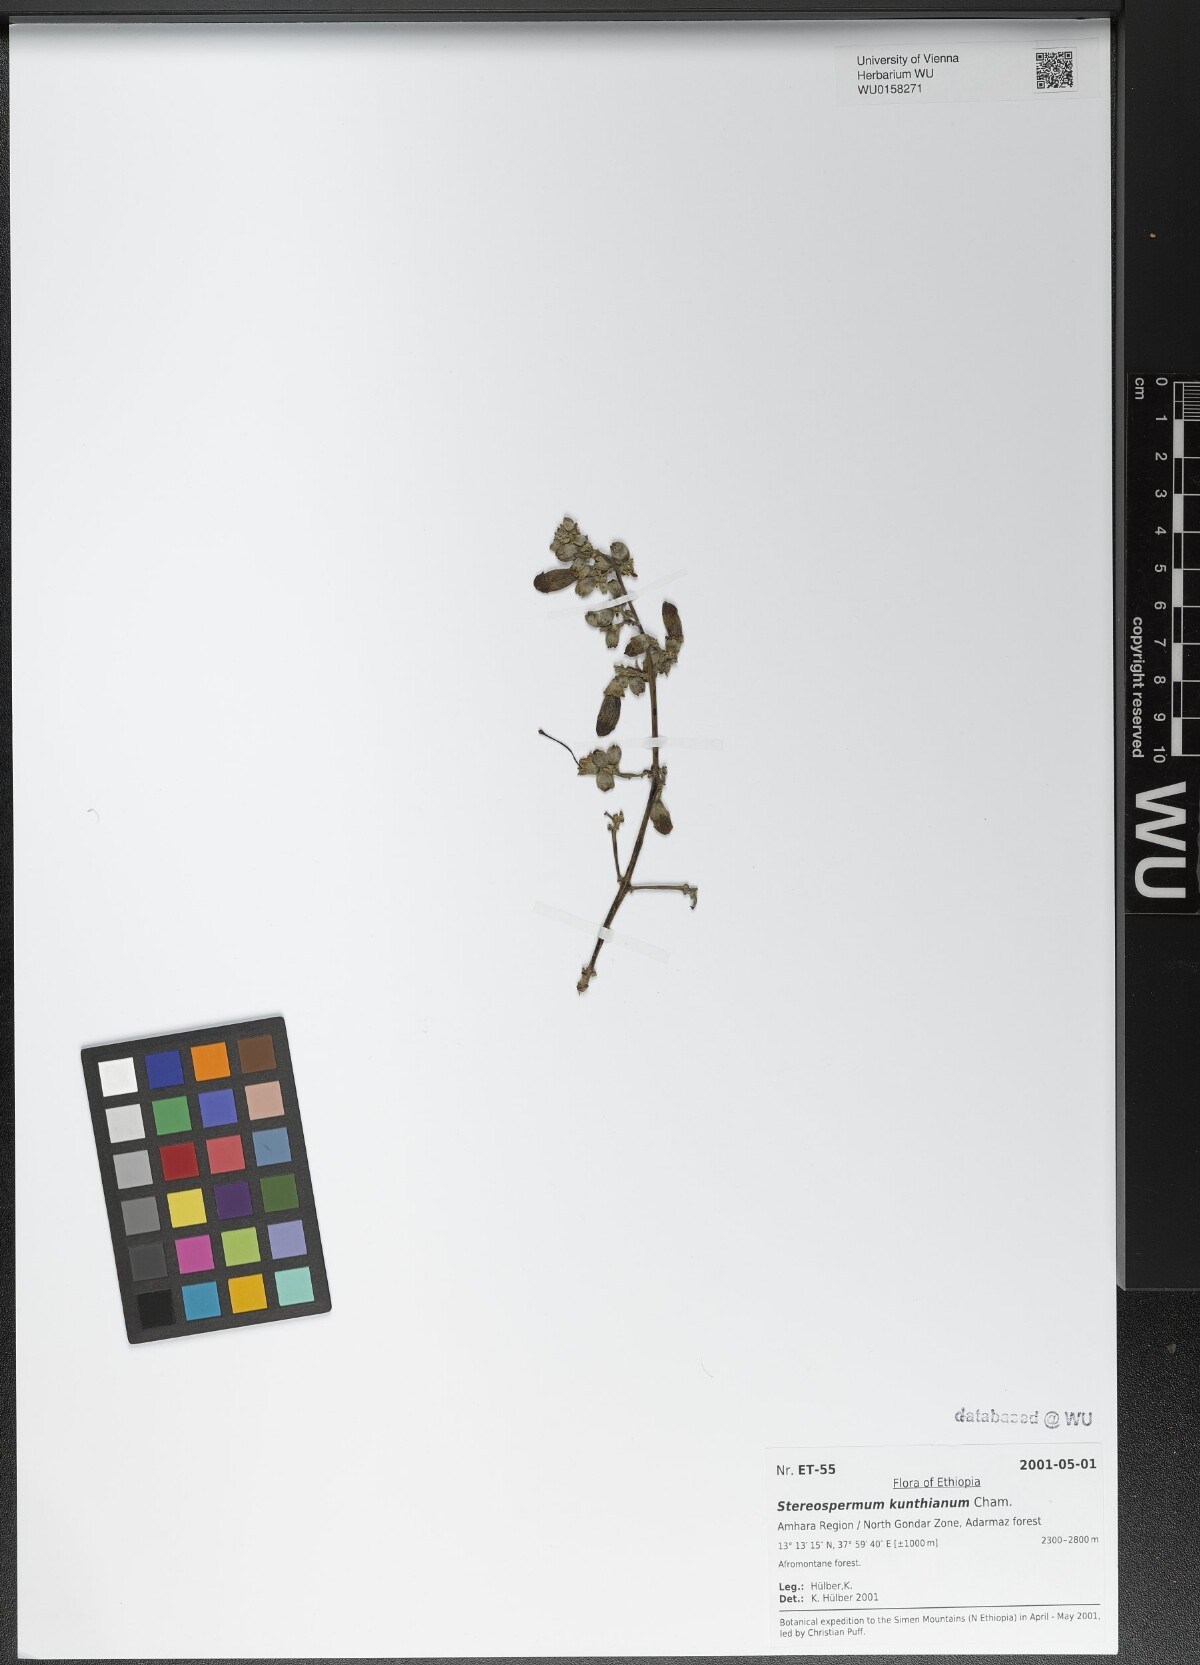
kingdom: Plantae
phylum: Tracheophyta
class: Magnoliopsida
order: Lamiales
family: Bignoniaceae
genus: Stereospermum
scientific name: Stereospermum kunthianum
